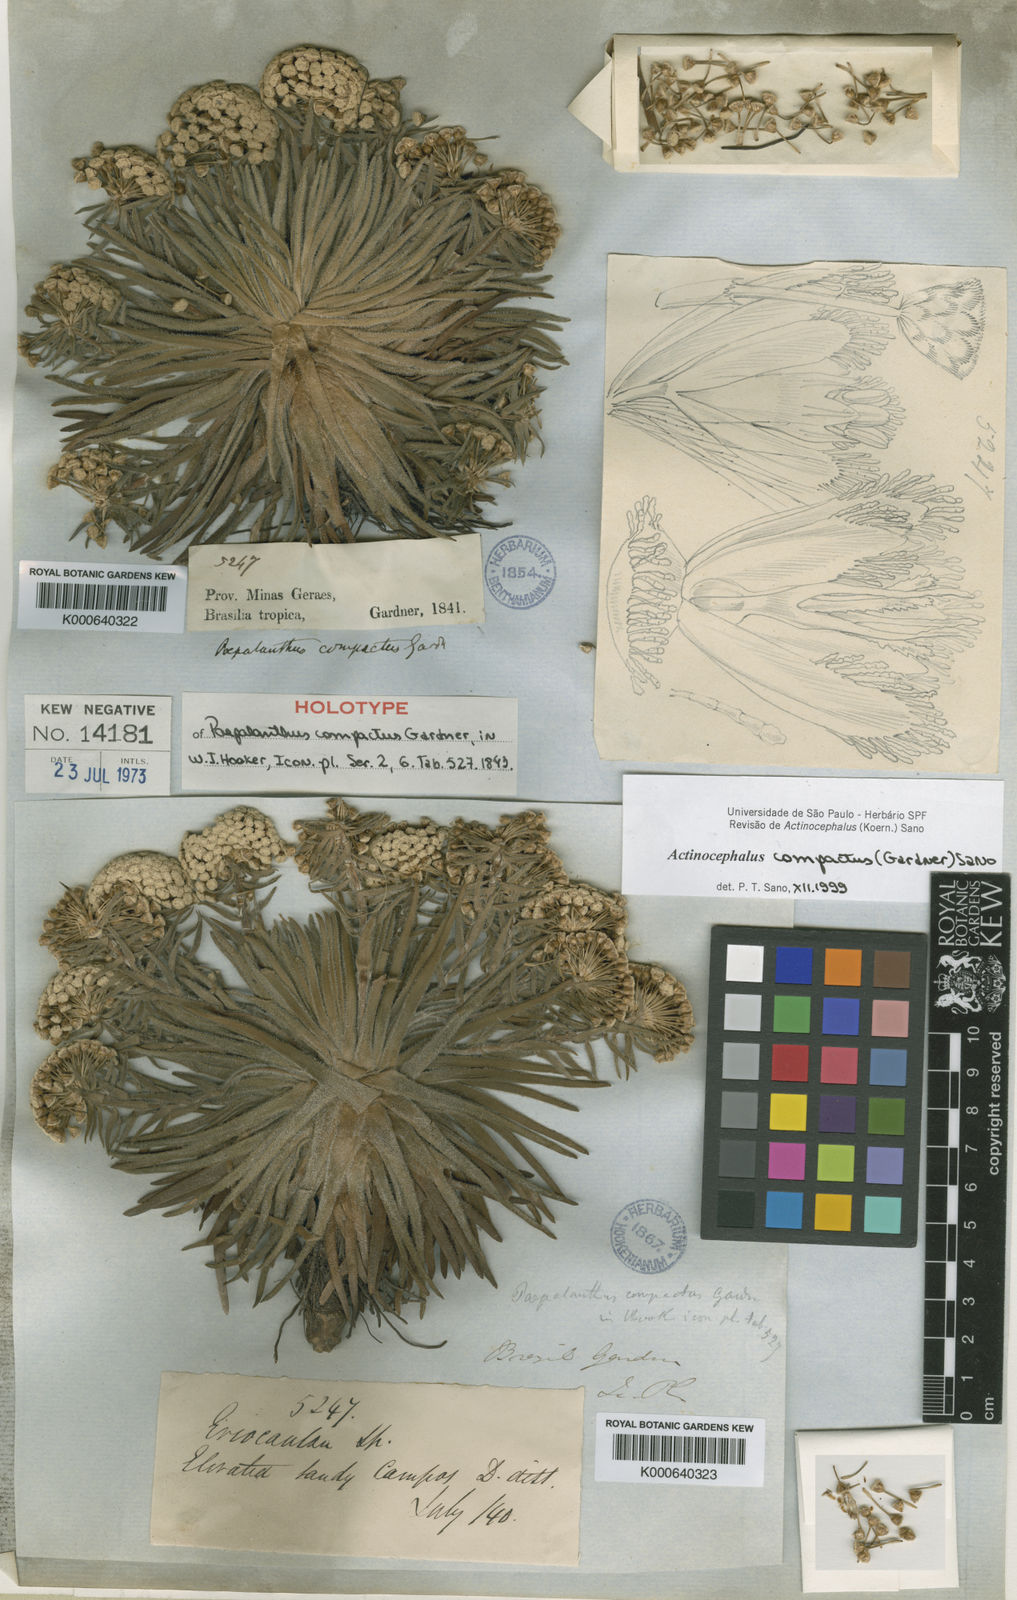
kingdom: Plantae
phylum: Tracheophyta
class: Liliopsida
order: Poales
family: Eriocaulaceae
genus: Paepalanthus
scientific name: Paepalanthus compactus
